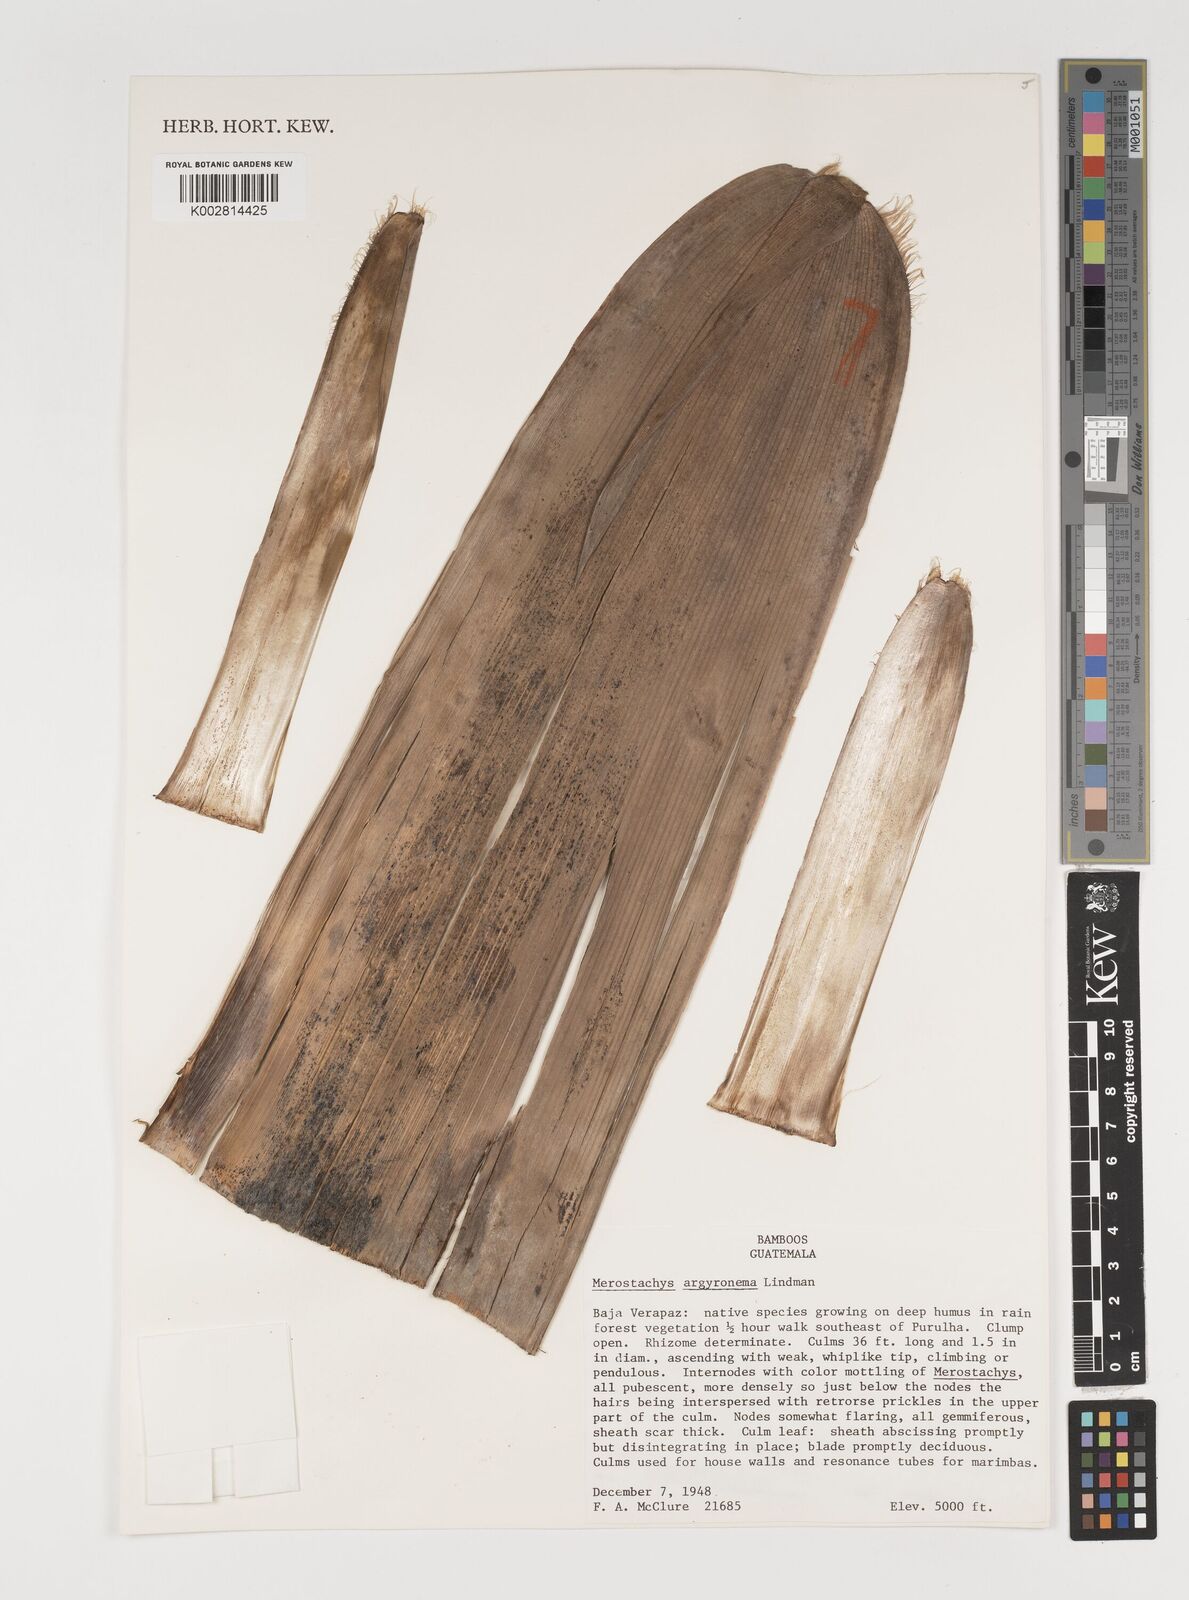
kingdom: Plantae
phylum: Tracheophyta
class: Liliopsida
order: Poales
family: Poaceae
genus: Merostachys
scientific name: Merostachys argyronema
